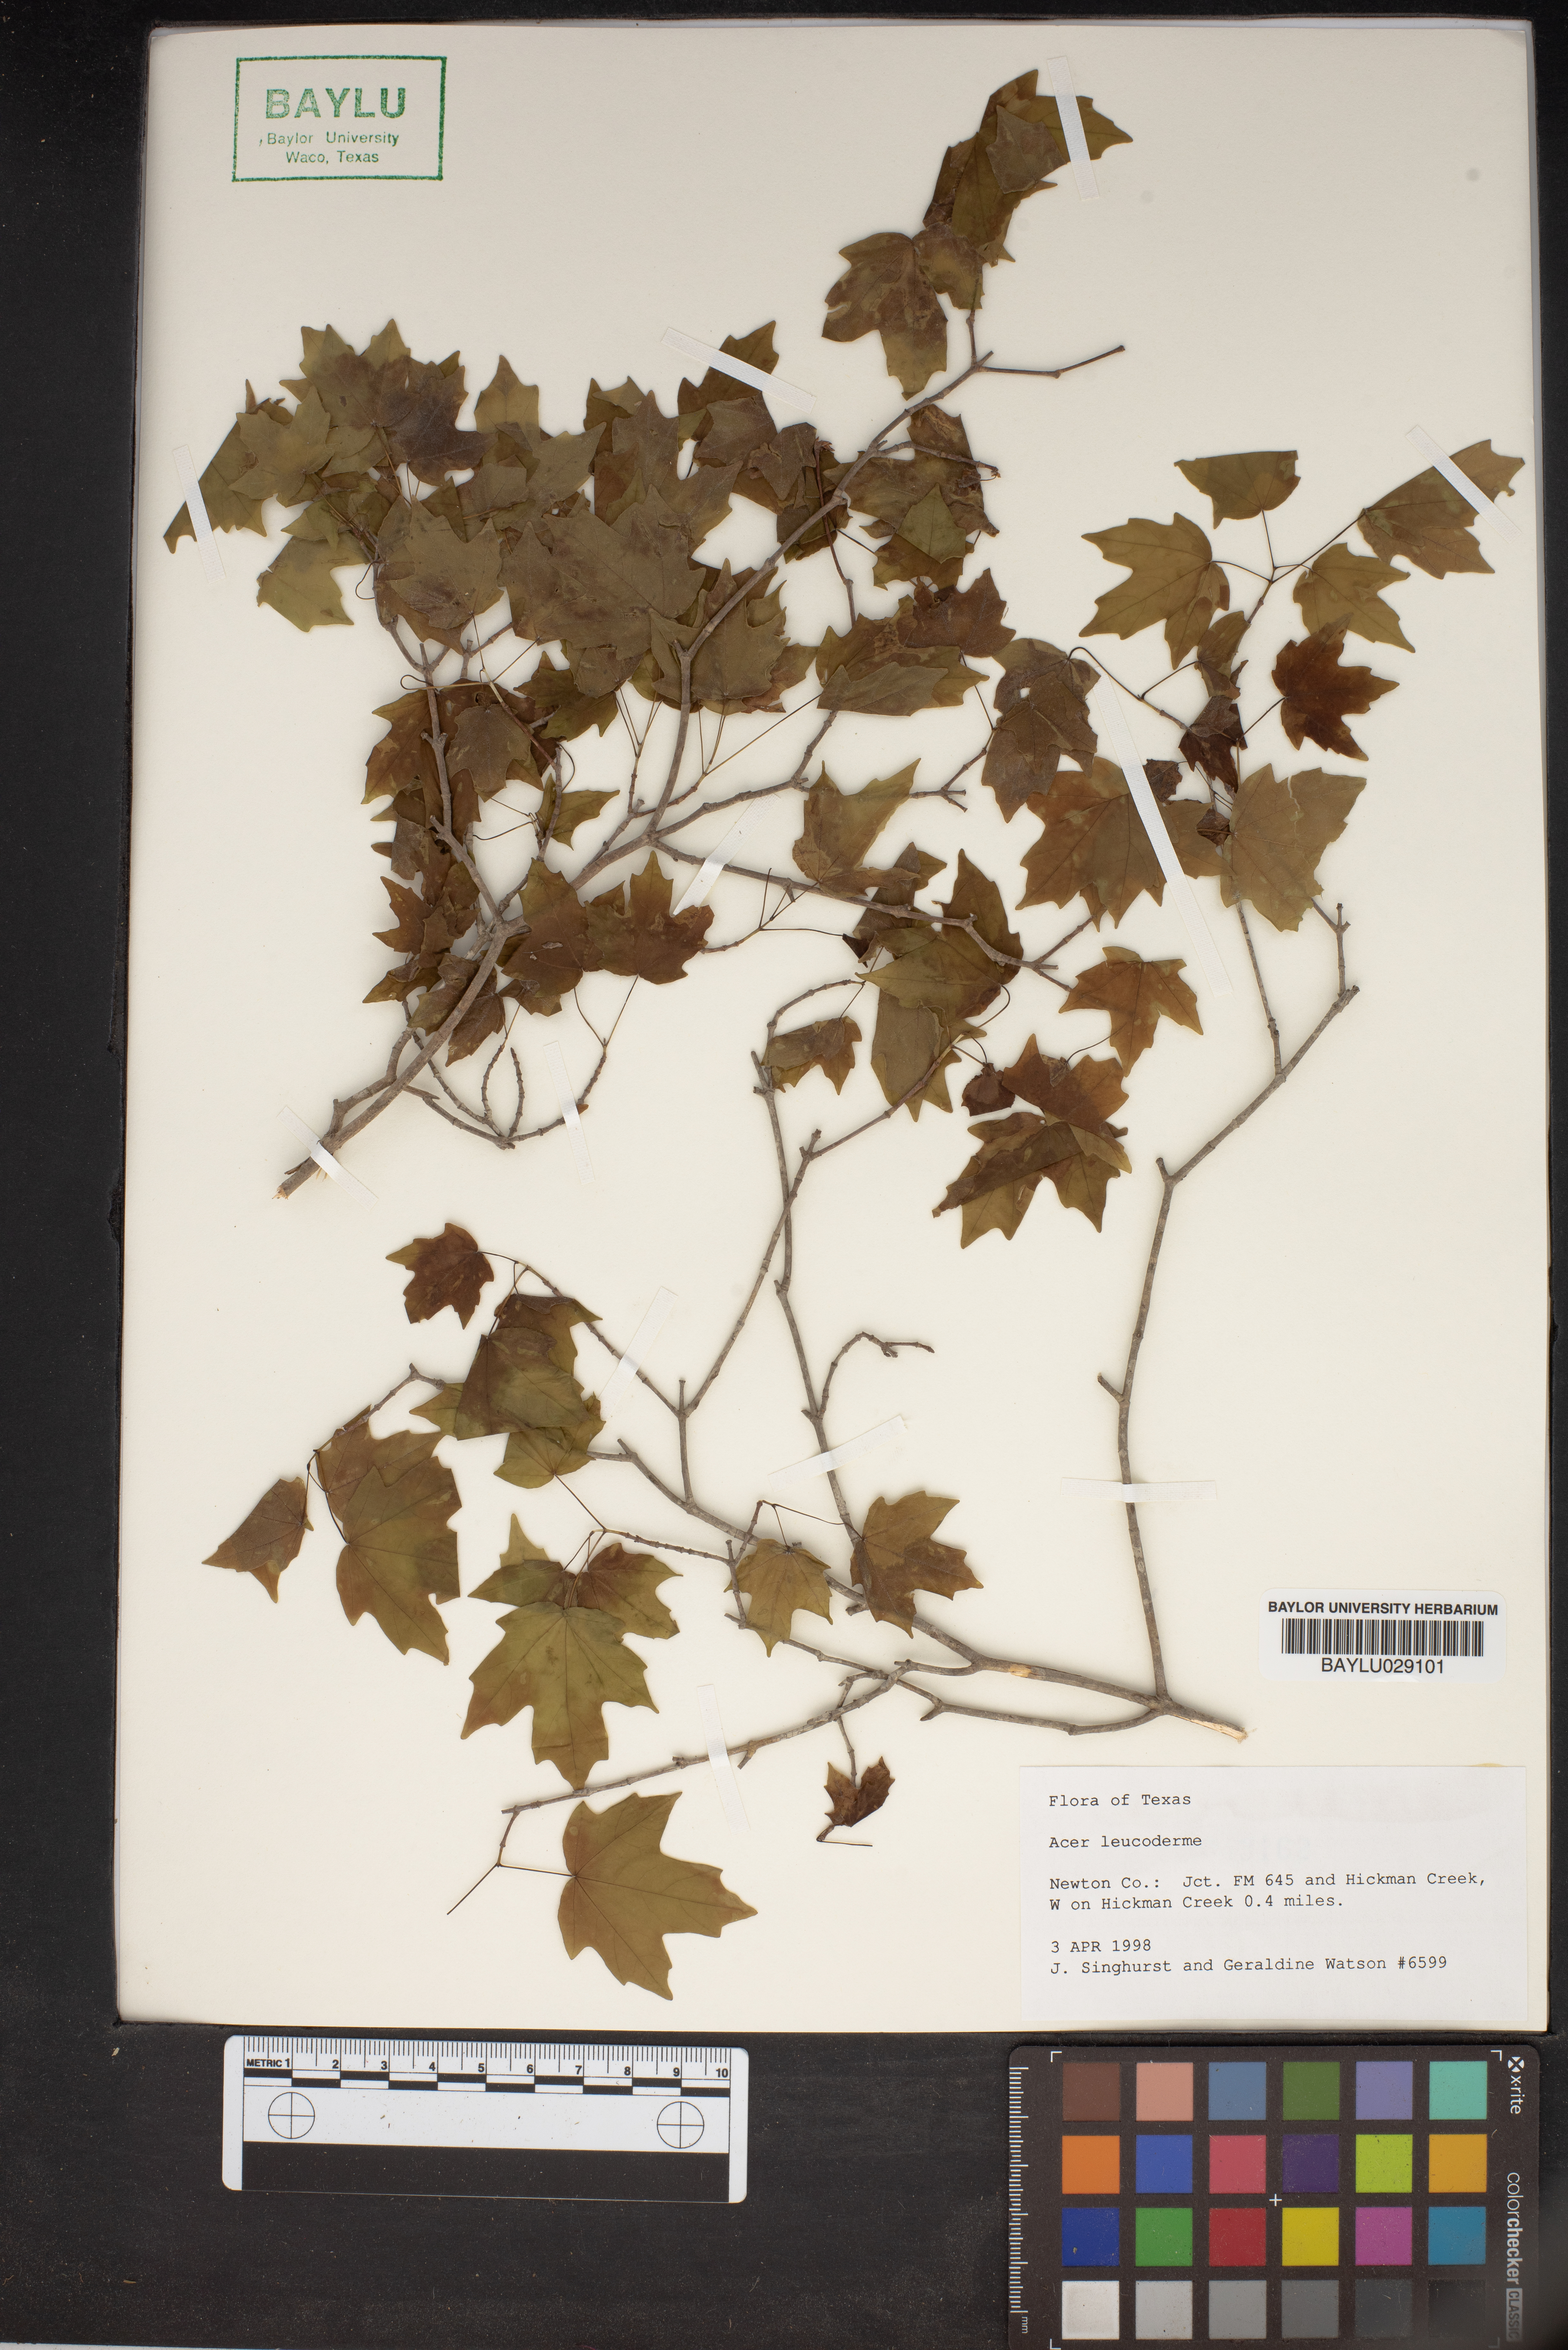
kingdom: Plantae
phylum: Tracheophyta
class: Magnoliopsida
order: Sapindales
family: Sapindaceae
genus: Acer
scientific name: Acer leucoderme
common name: Chalk maple
